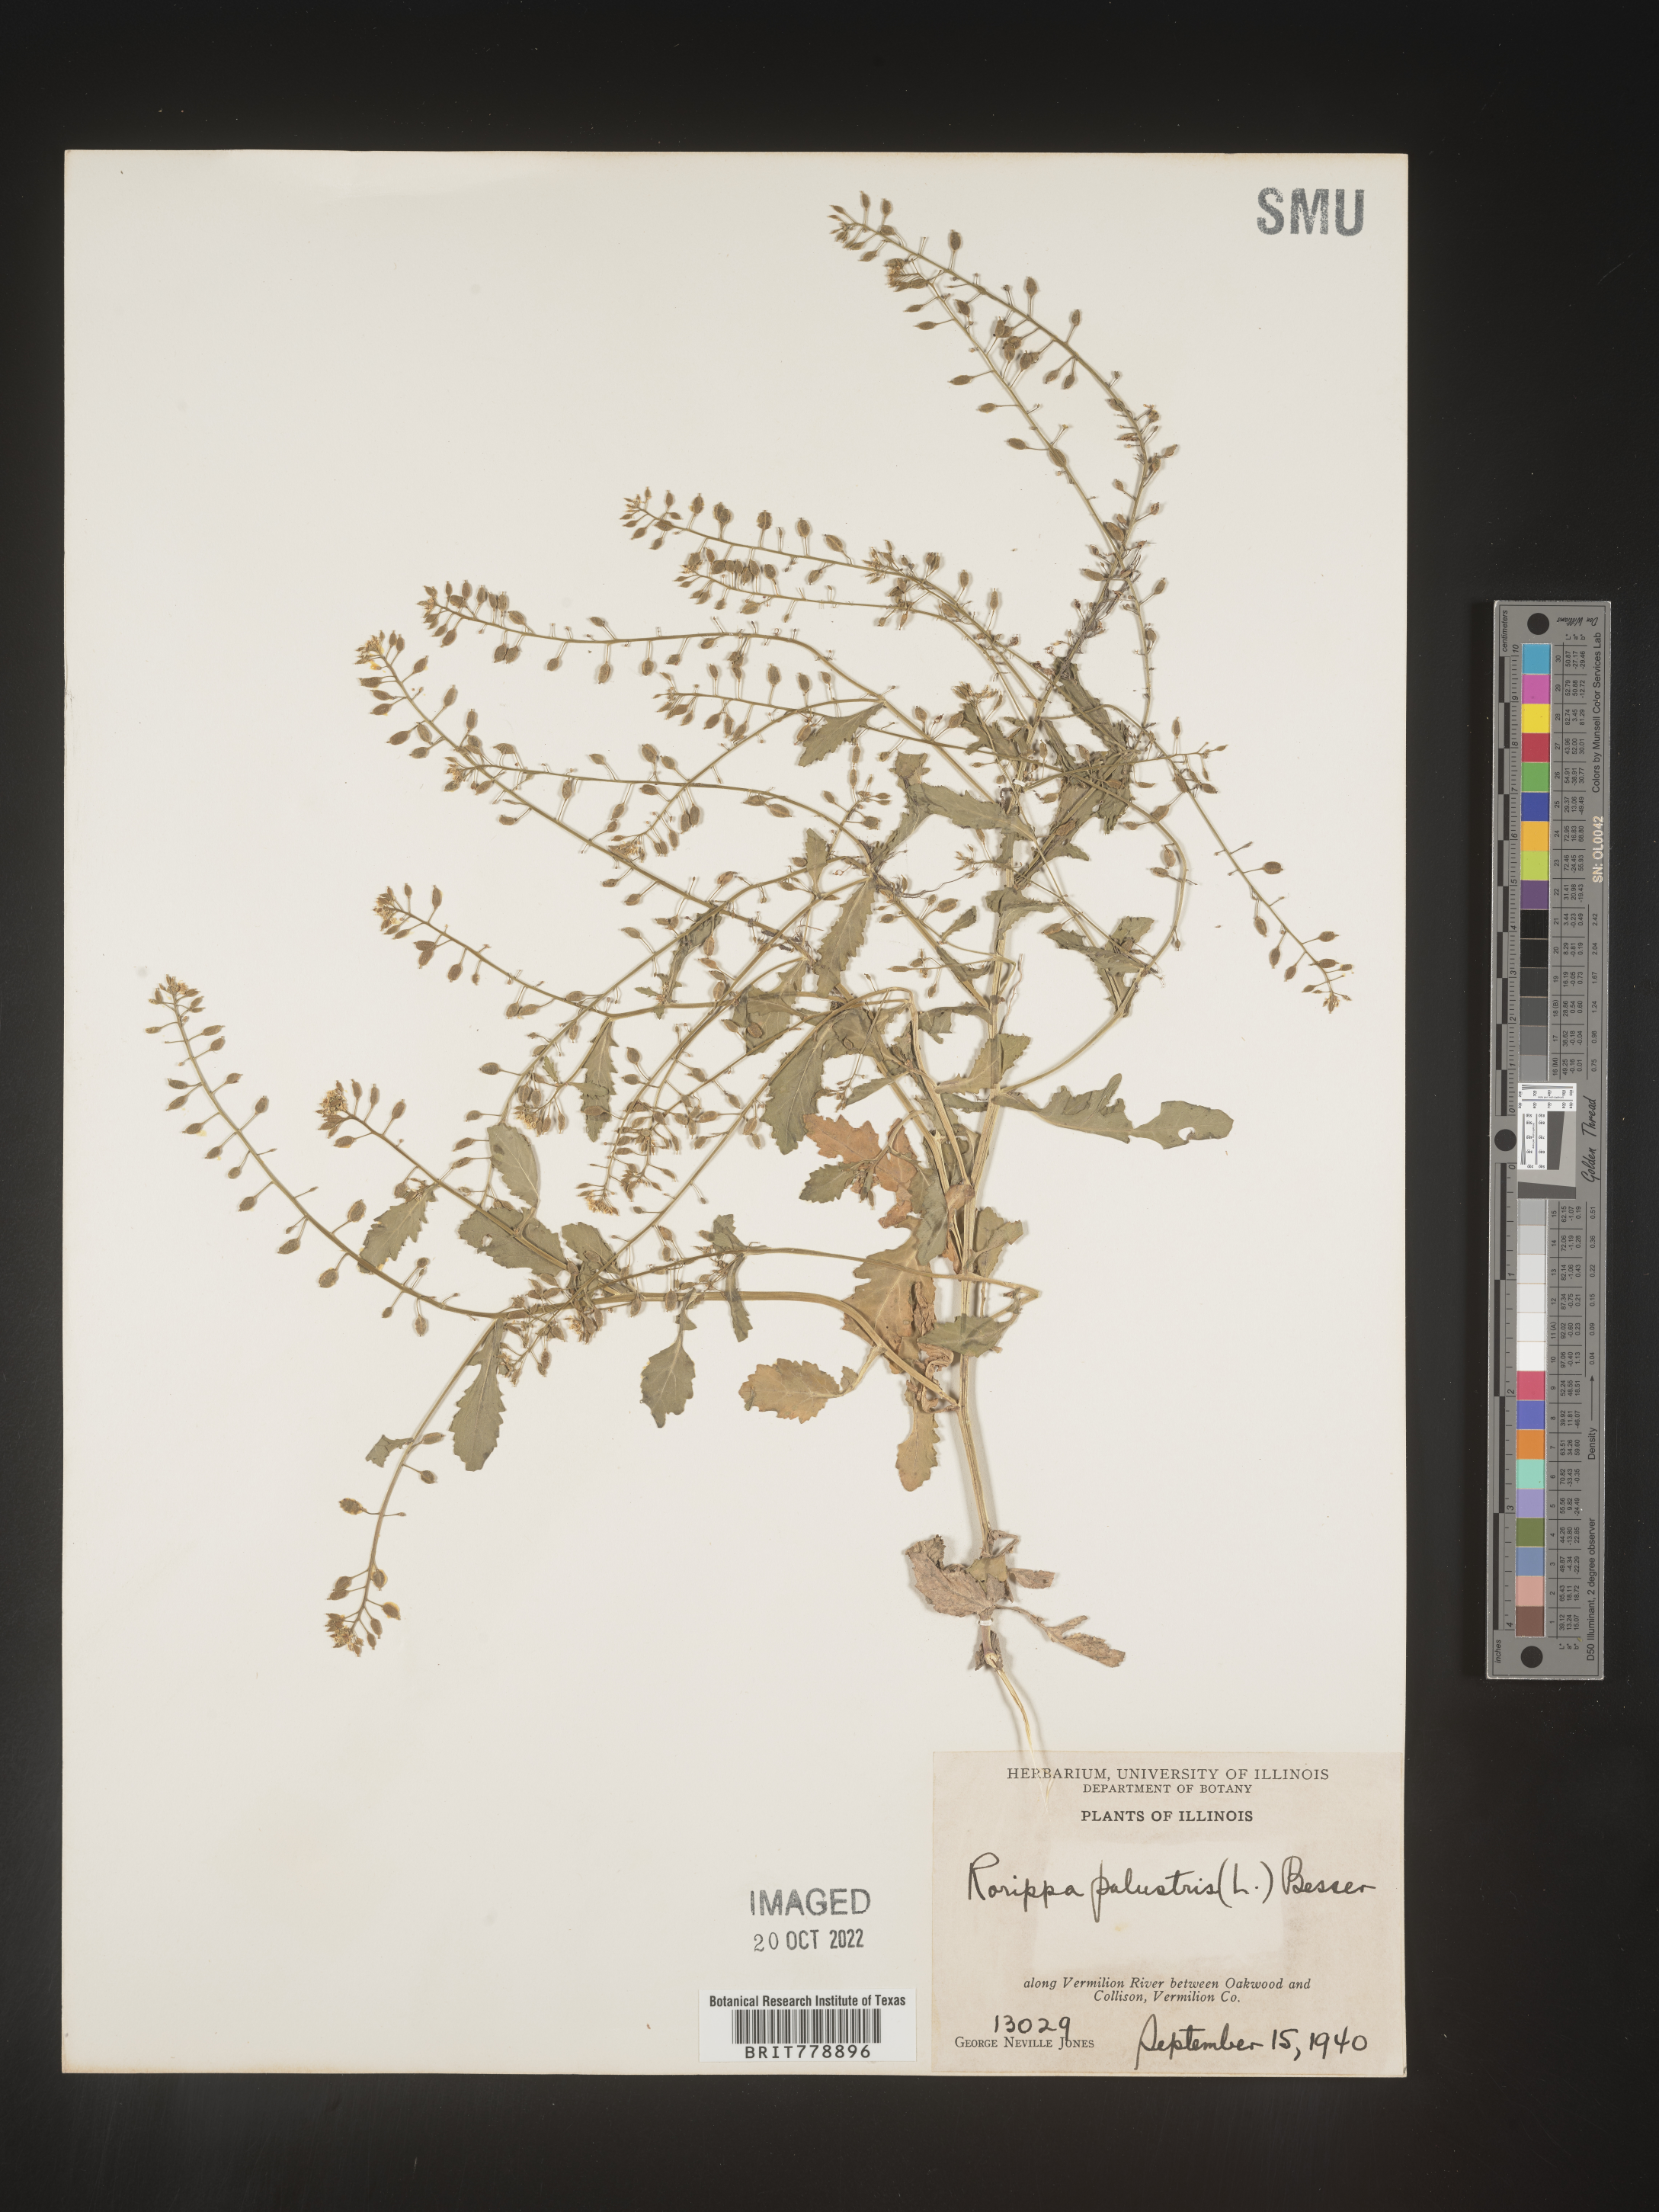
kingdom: Plantae
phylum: Tracheophyta
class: Magnoliopsida
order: Brassicales
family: Brassicaceae
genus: Rorippa
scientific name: Rorippa palustris
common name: Marsh yellow-cress
